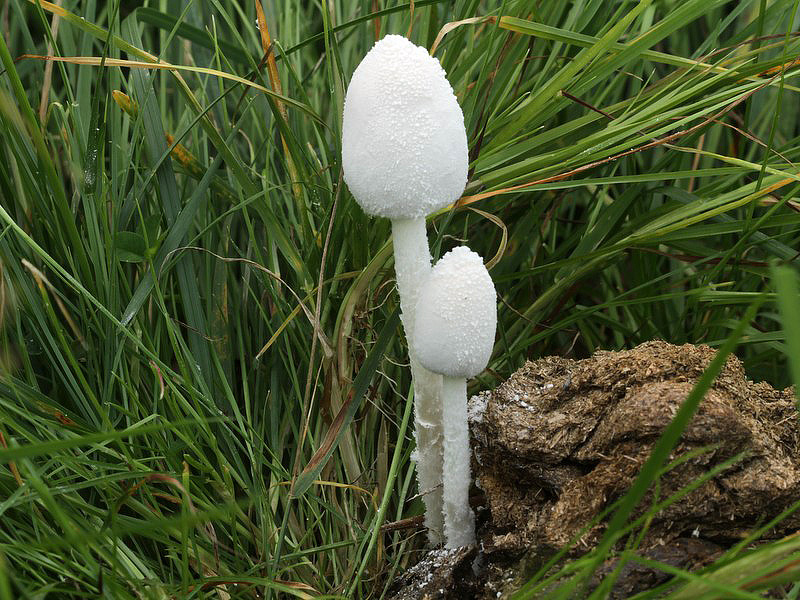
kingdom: Fungi
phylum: Basidiomycota
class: Agaricomycetes
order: Agaricales
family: Psathyrellaceae
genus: Coprinopsis
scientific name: Coprinopsis nivea
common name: snehvid blækhat
